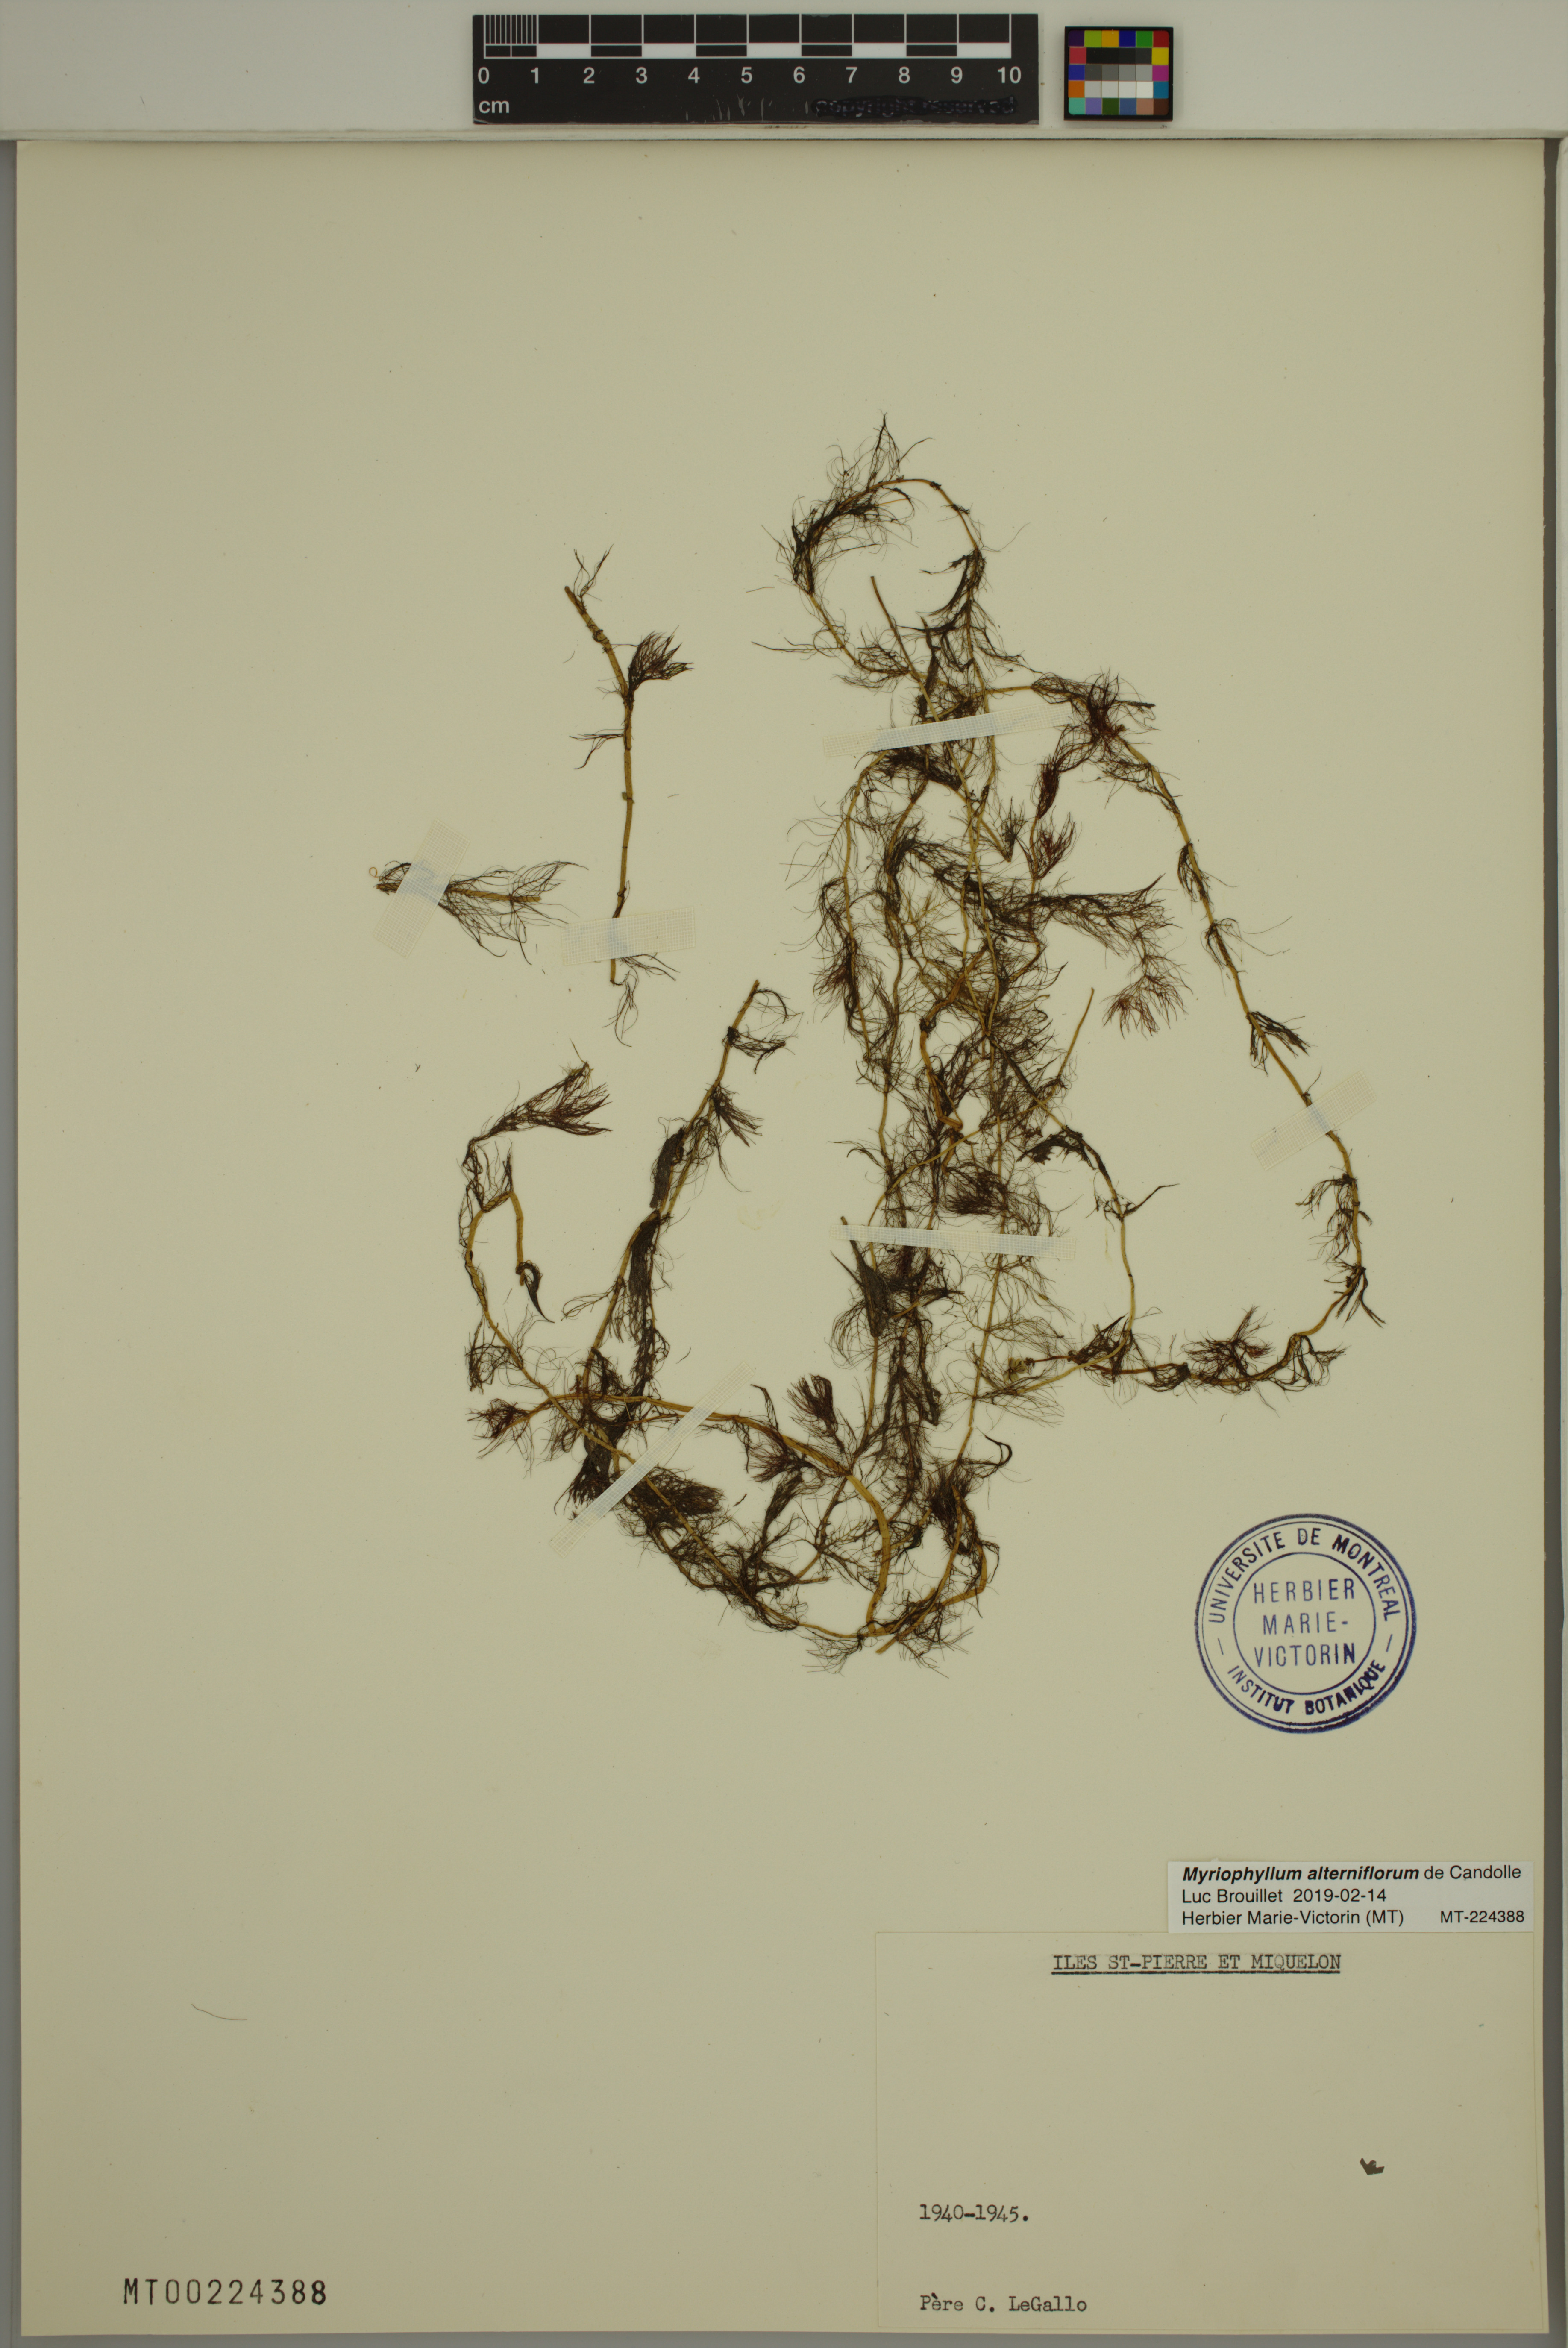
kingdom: Plantae
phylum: Tracheophyta
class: Magnoliopsida
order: Saxifragales
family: Haloragaceae
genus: Myriophyllum
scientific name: Myriophyllum alterniflorum
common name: Alternate water-milfoil
